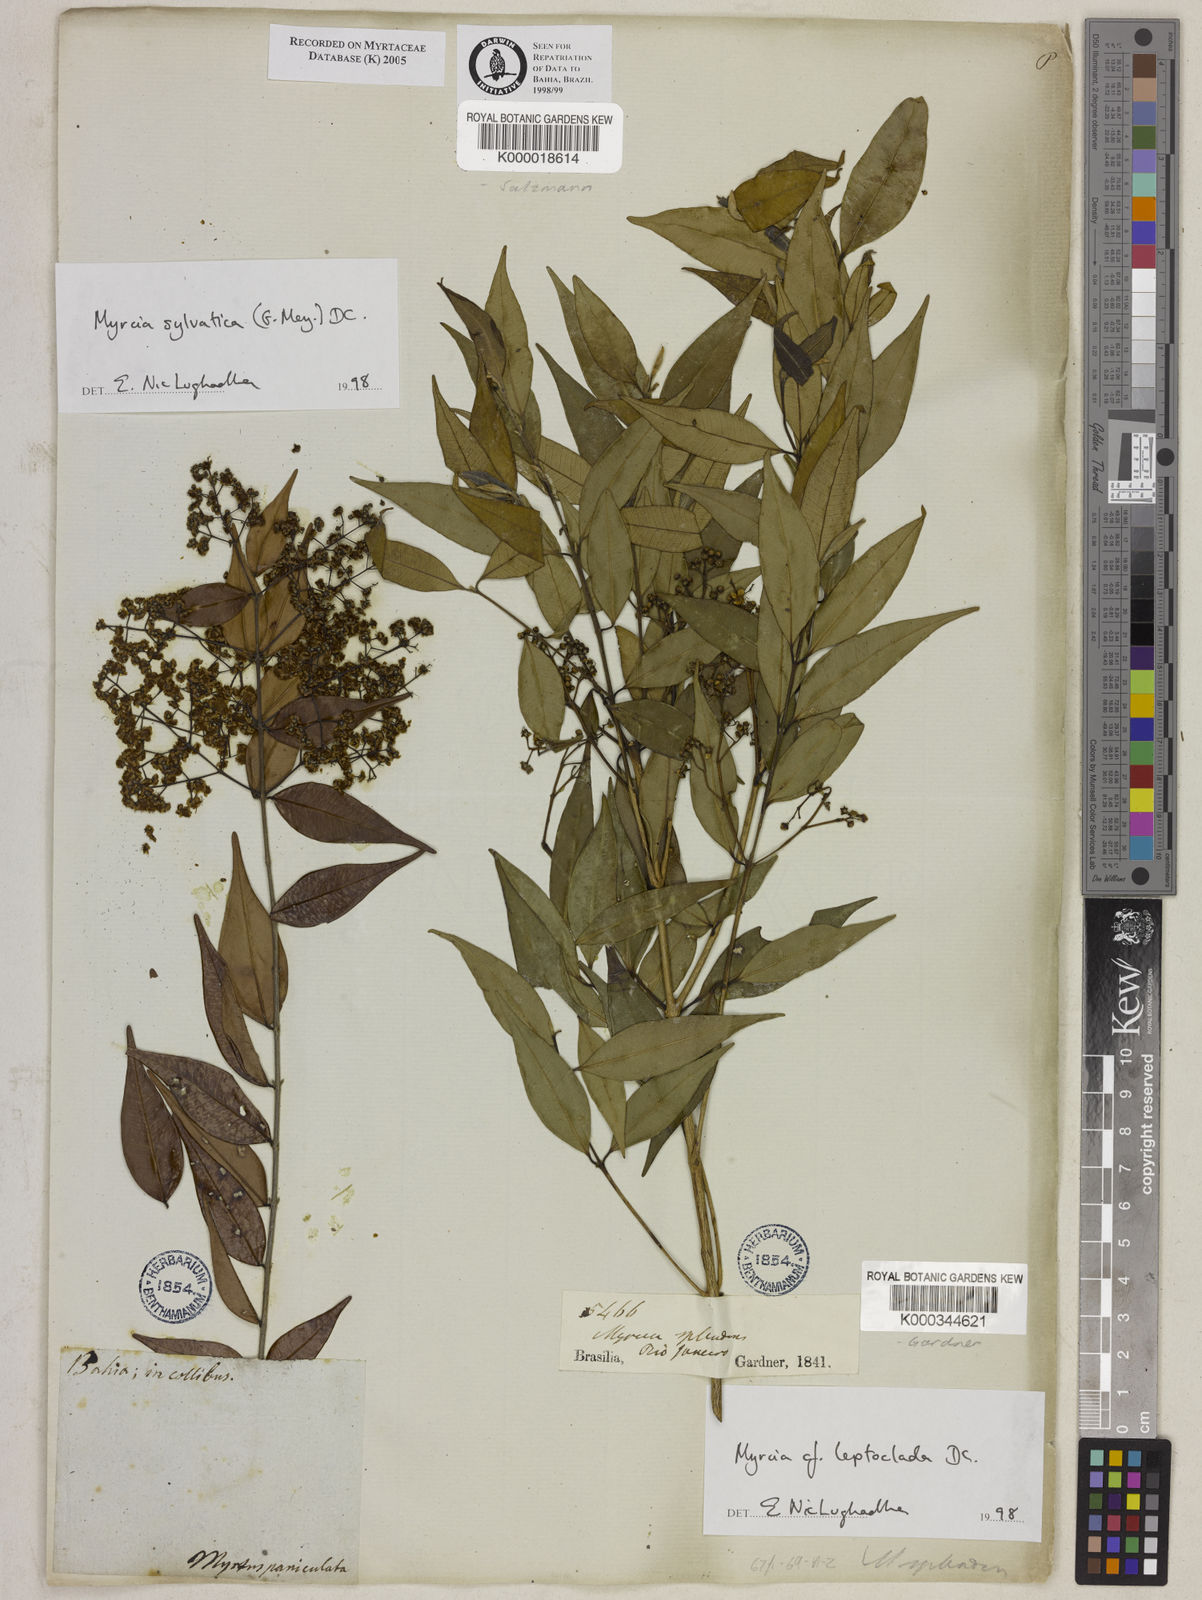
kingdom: Plantae
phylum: Tracheophyta
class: Magnoliopsida
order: Myrtales
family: Myrtaceae
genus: Myrcia
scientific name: Myrcia sylvatica
